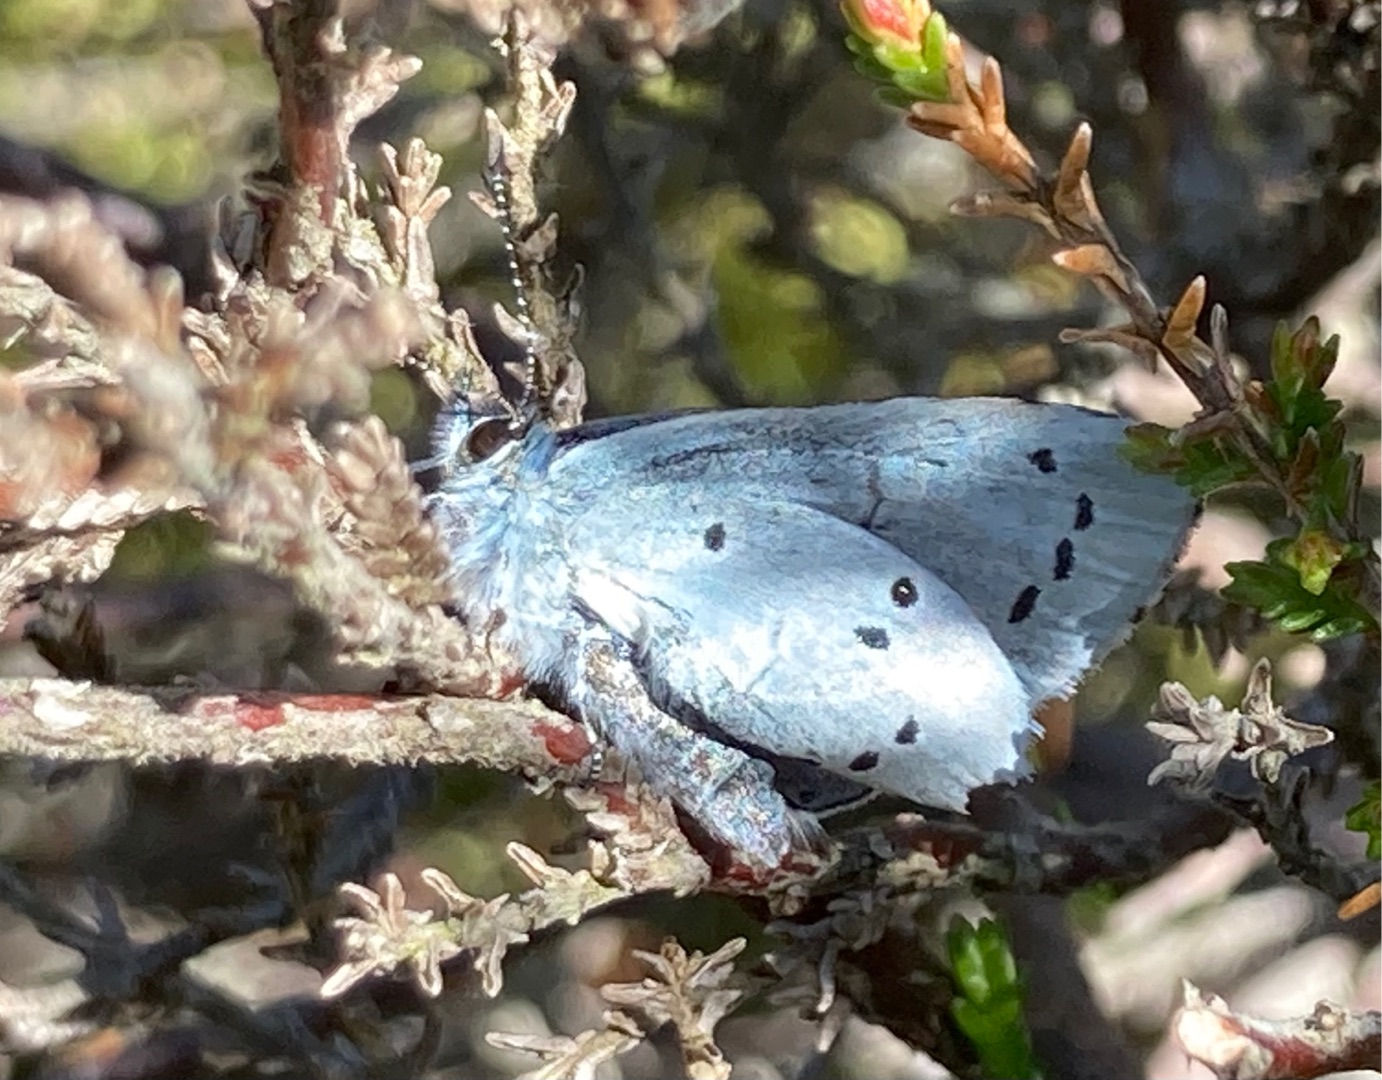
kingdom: Animalia
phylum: Arthropoda
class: Insecta
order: Lepidoptera
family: Lycaenidae
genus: Celastrina
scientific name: Celastrina argiolus
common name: Skovblåfugl
